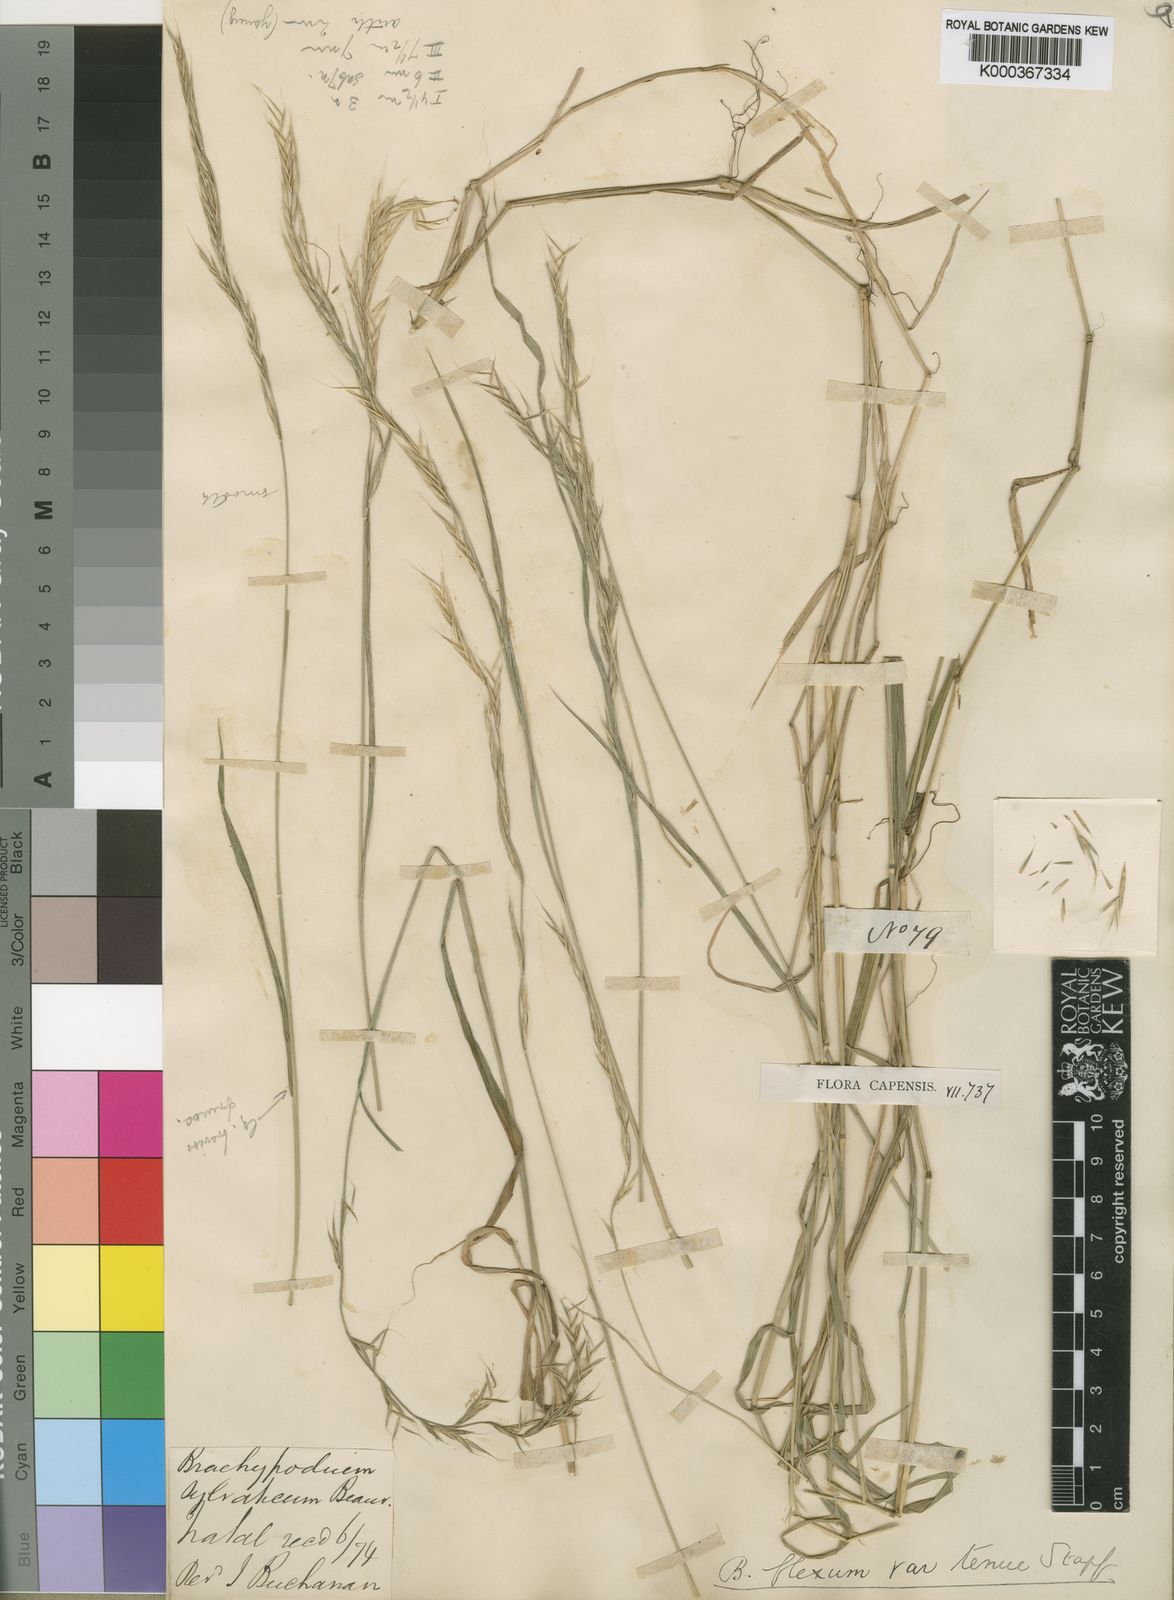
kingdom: Plantae
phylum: Tracheophyta
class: Liliopsida
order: Poales
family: Poaceae
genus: Brachypodium
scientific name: Brachypodium flexum
